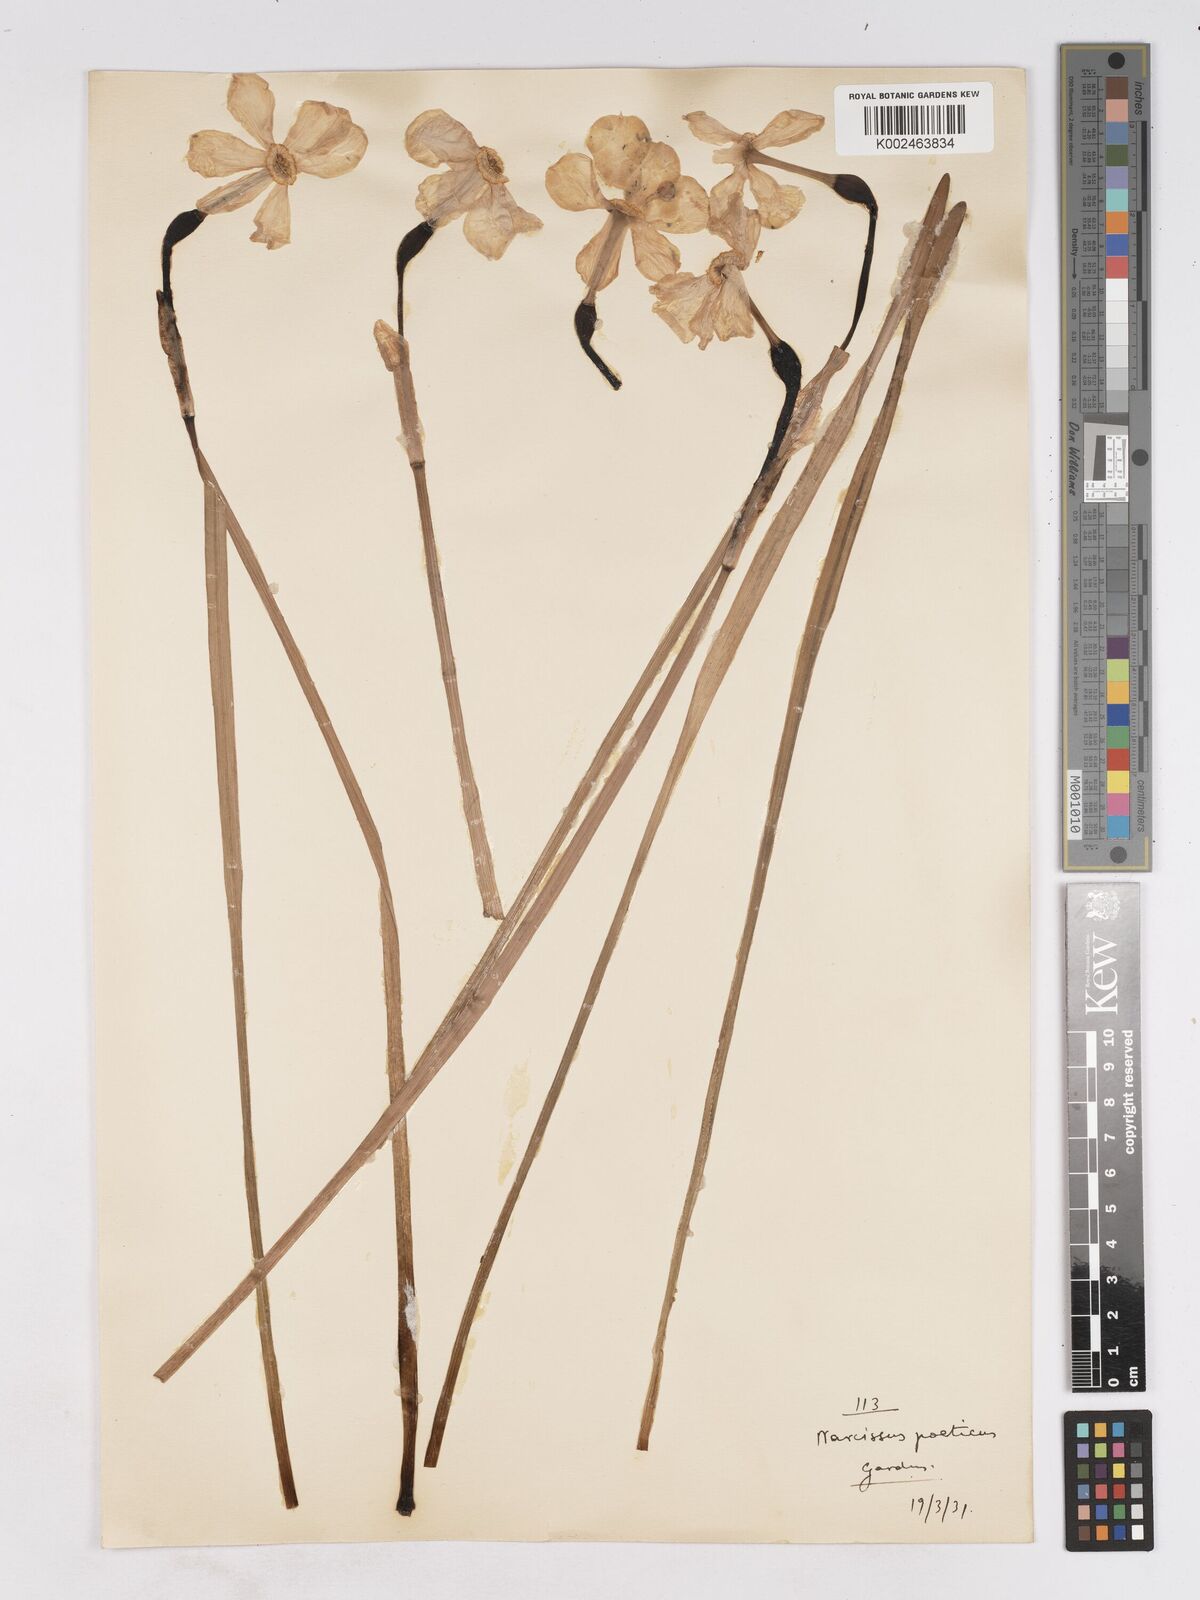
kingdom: Plantae
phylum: Tracheophyta
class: Liliopsida
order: Asparagales
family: Amaryllidaceae
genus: Narcissus
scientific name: Narcissus
